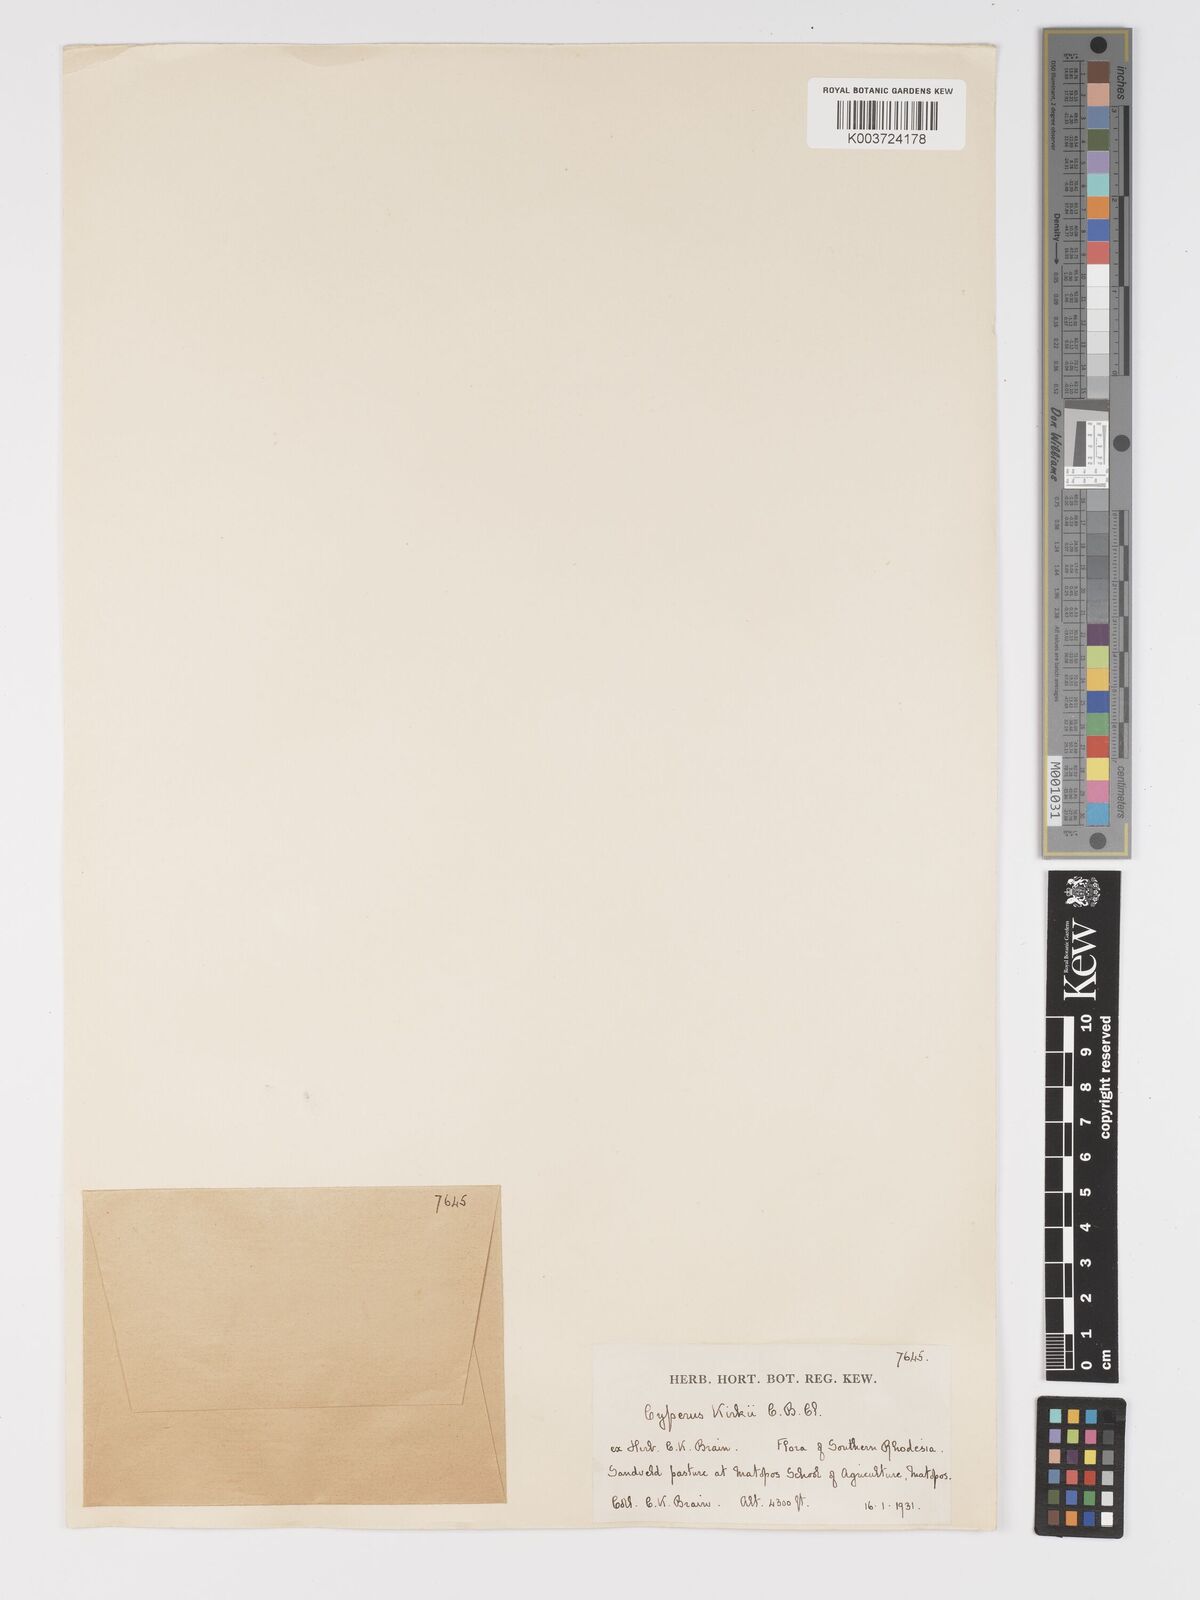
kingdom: Plantae
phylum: Tracheophyta
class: Liliopsida
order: Poales
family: Cyperaceae
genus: Cyperus
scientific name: Cyperus rupestris
